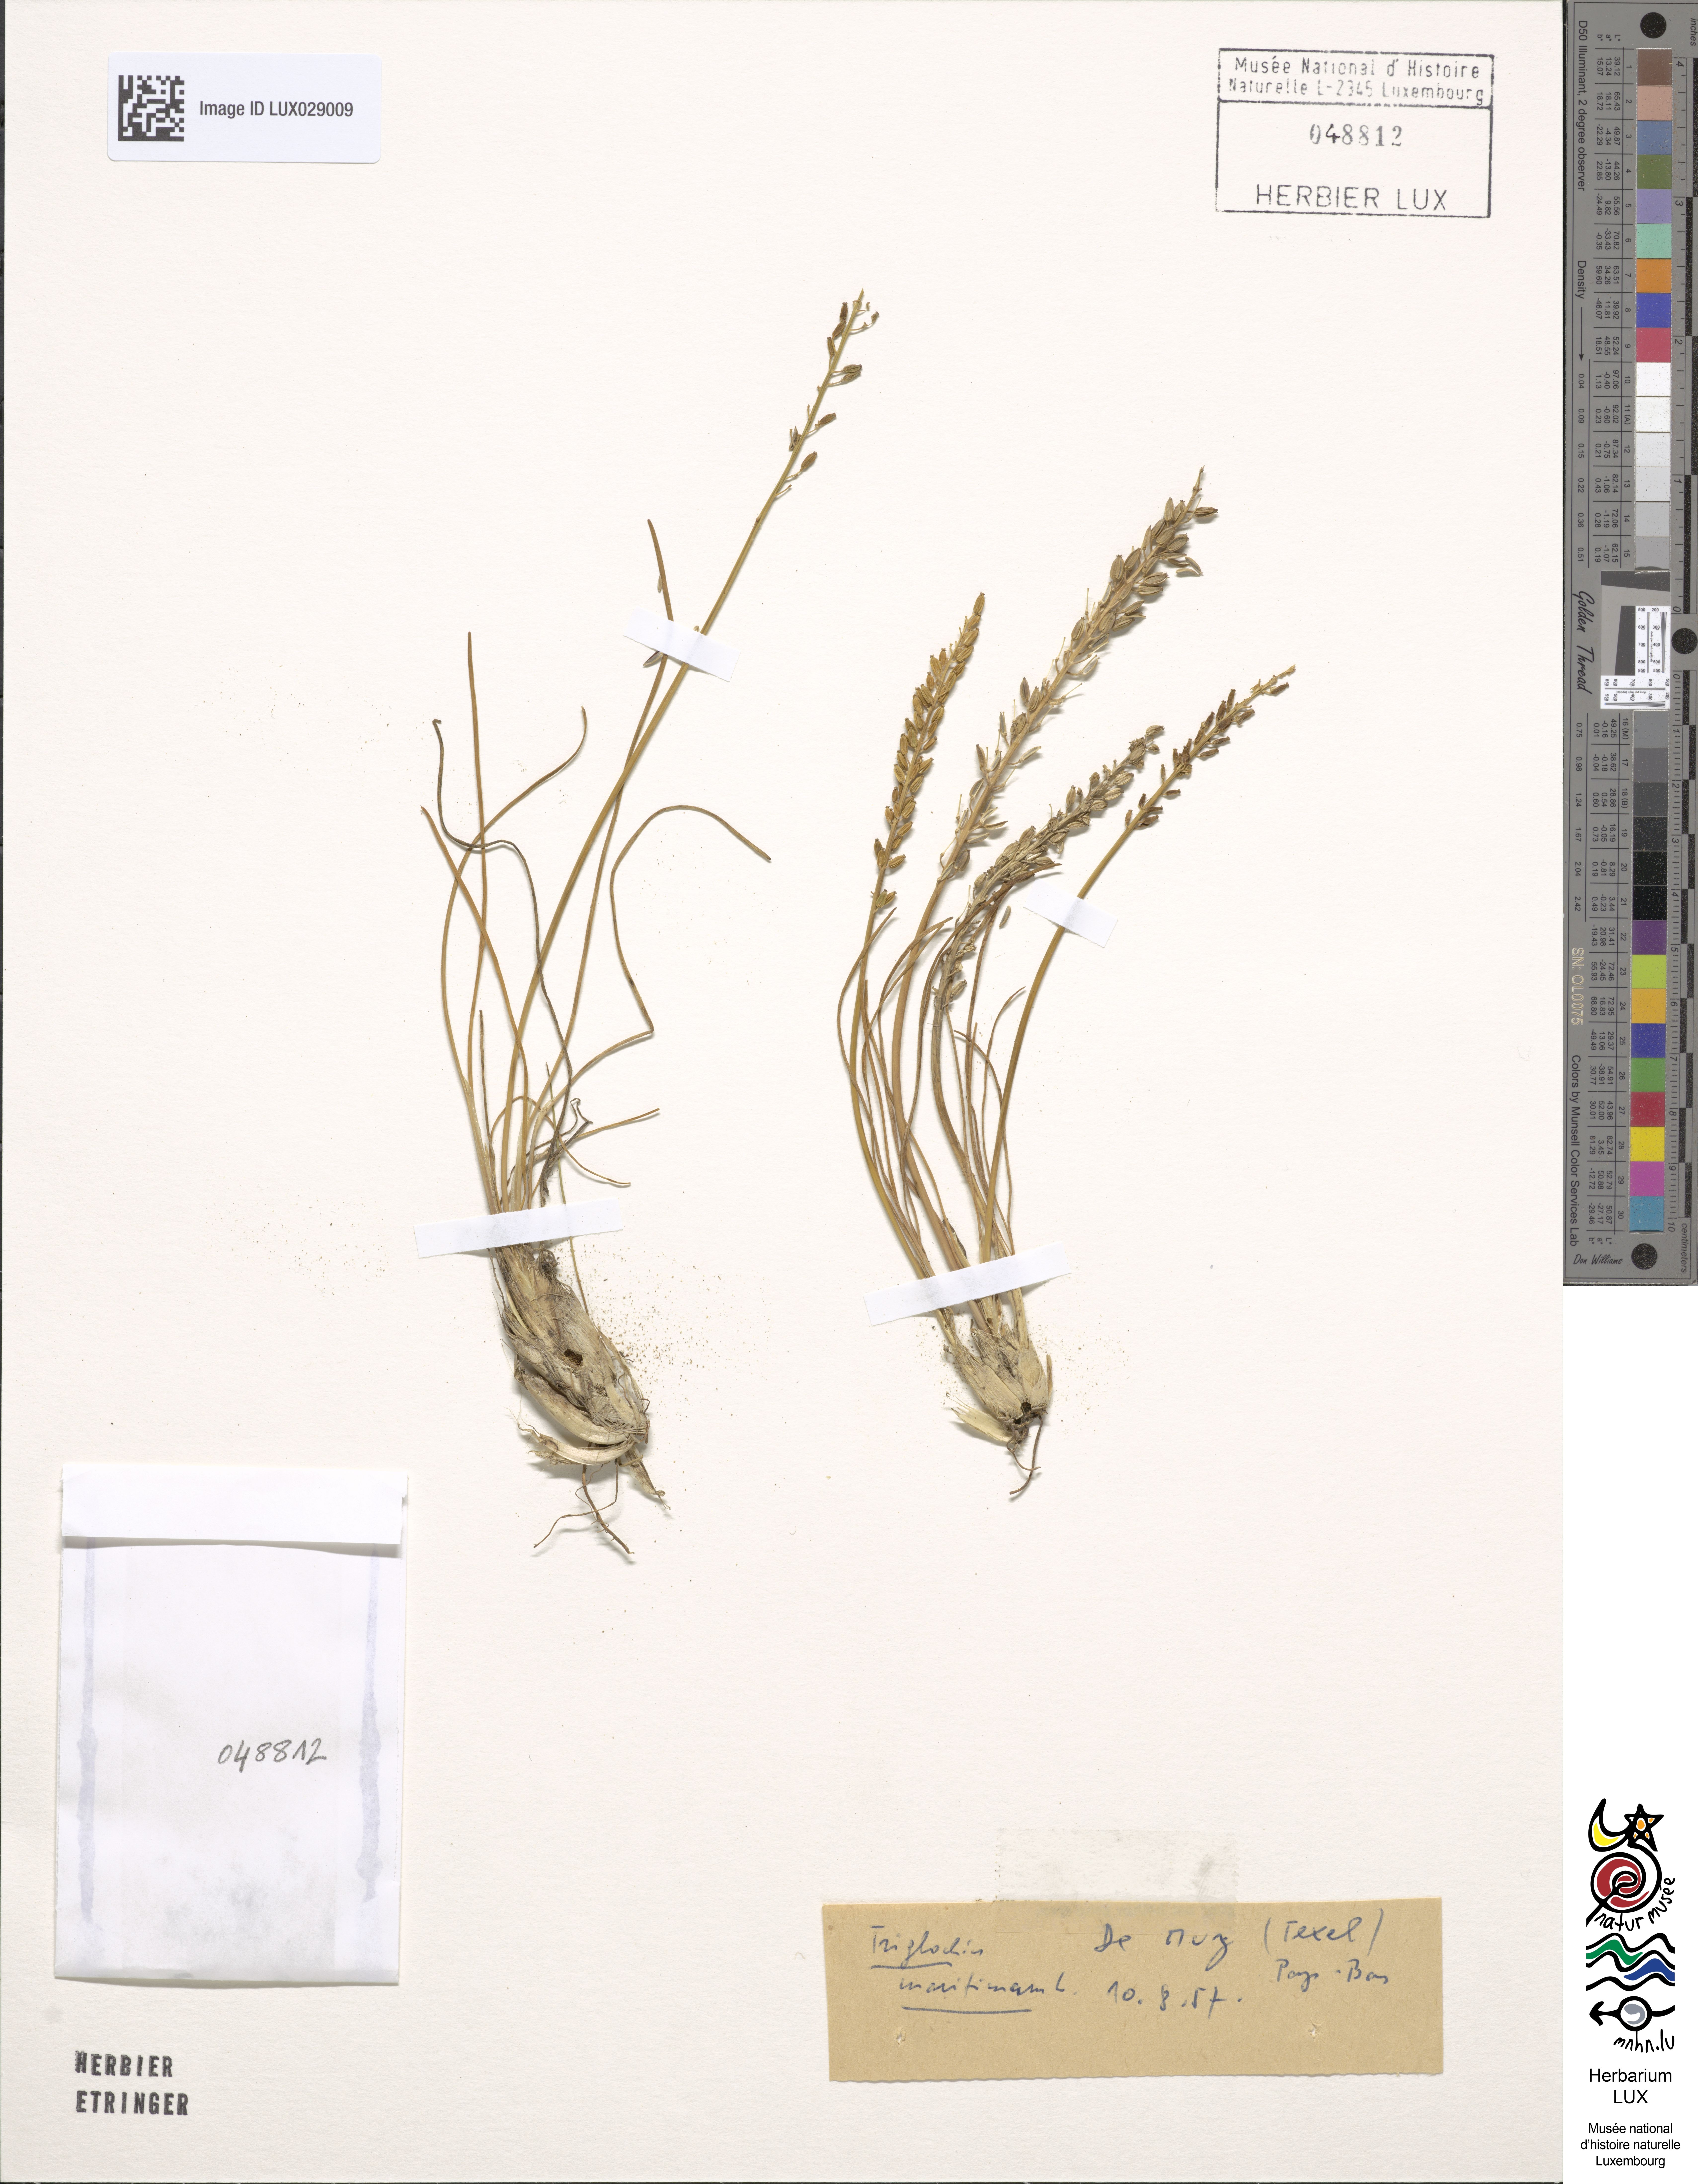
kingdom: Plantae
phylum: Tracheophyta
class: Liliopsida
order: Alismatales
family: Juncaginaceae
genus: Triglochin
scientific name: Triglochin
